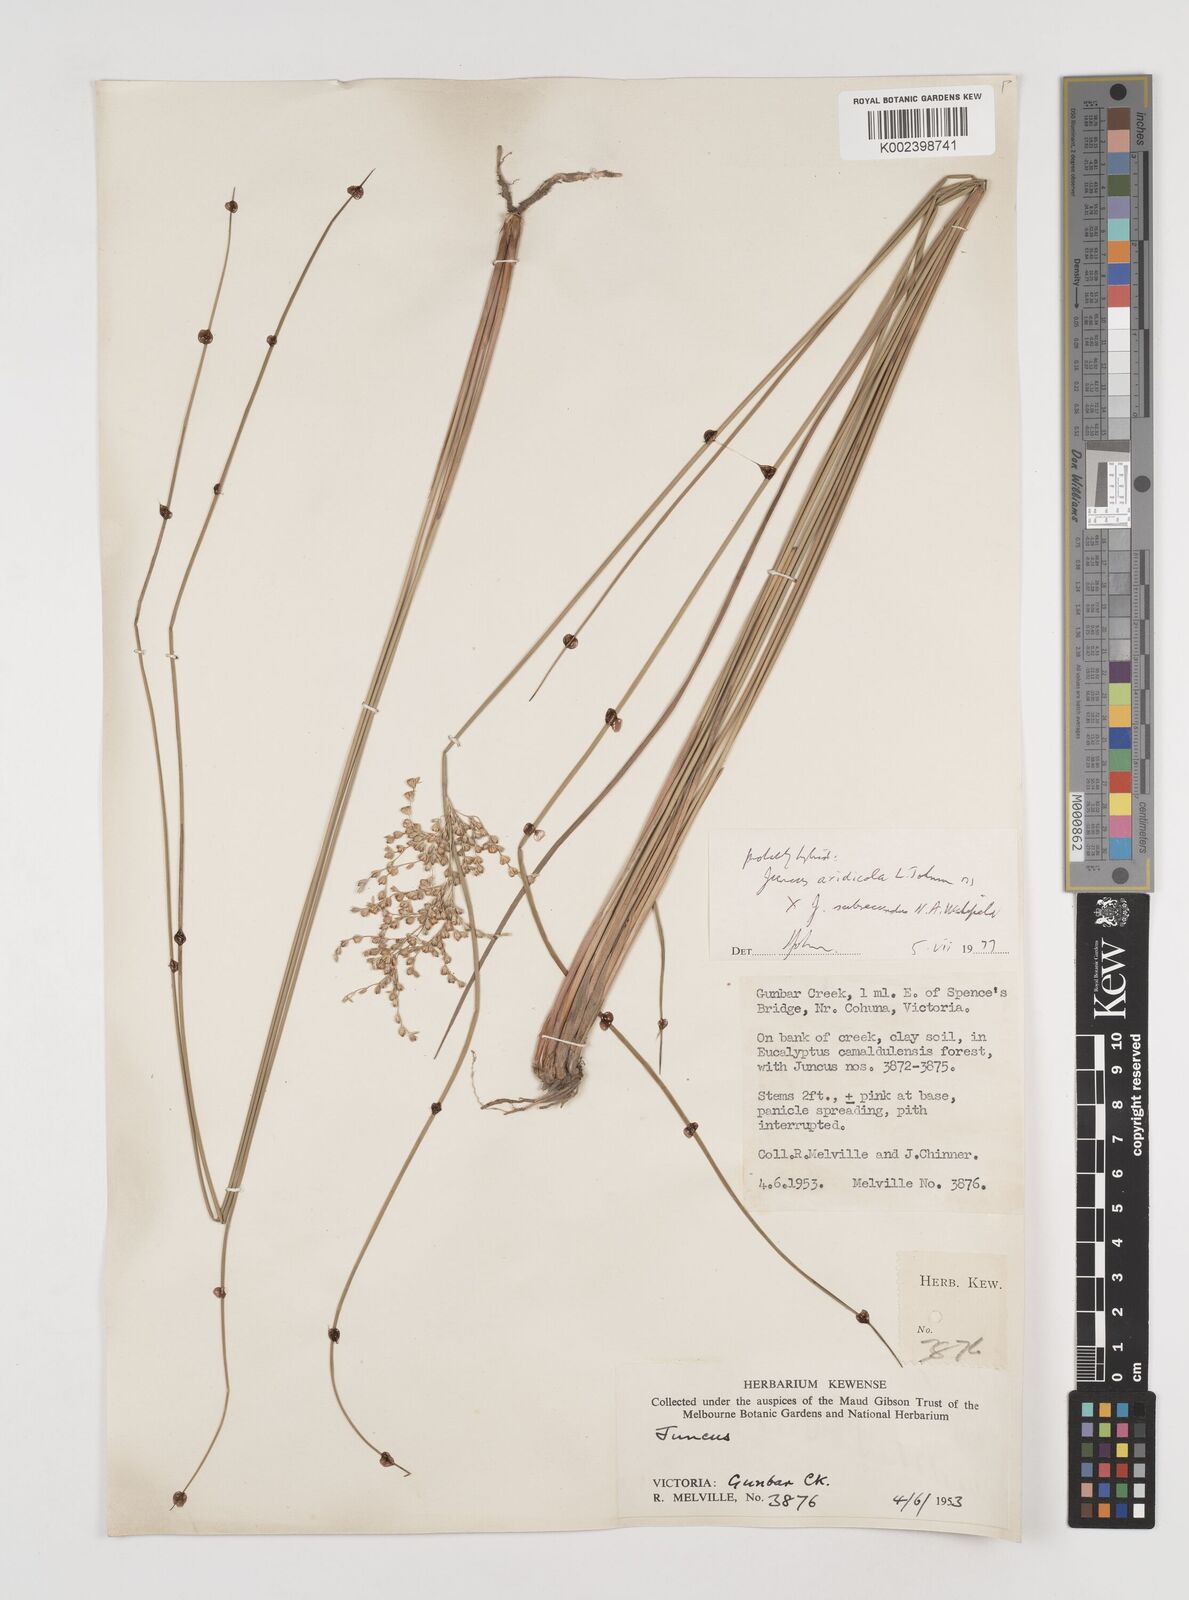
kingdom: Plantae
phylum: Tracheophyta
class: Liliopsida
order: Poales
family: Juncaceae
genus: Juncus
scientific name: Juncus aridicola
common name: Tussock rush
